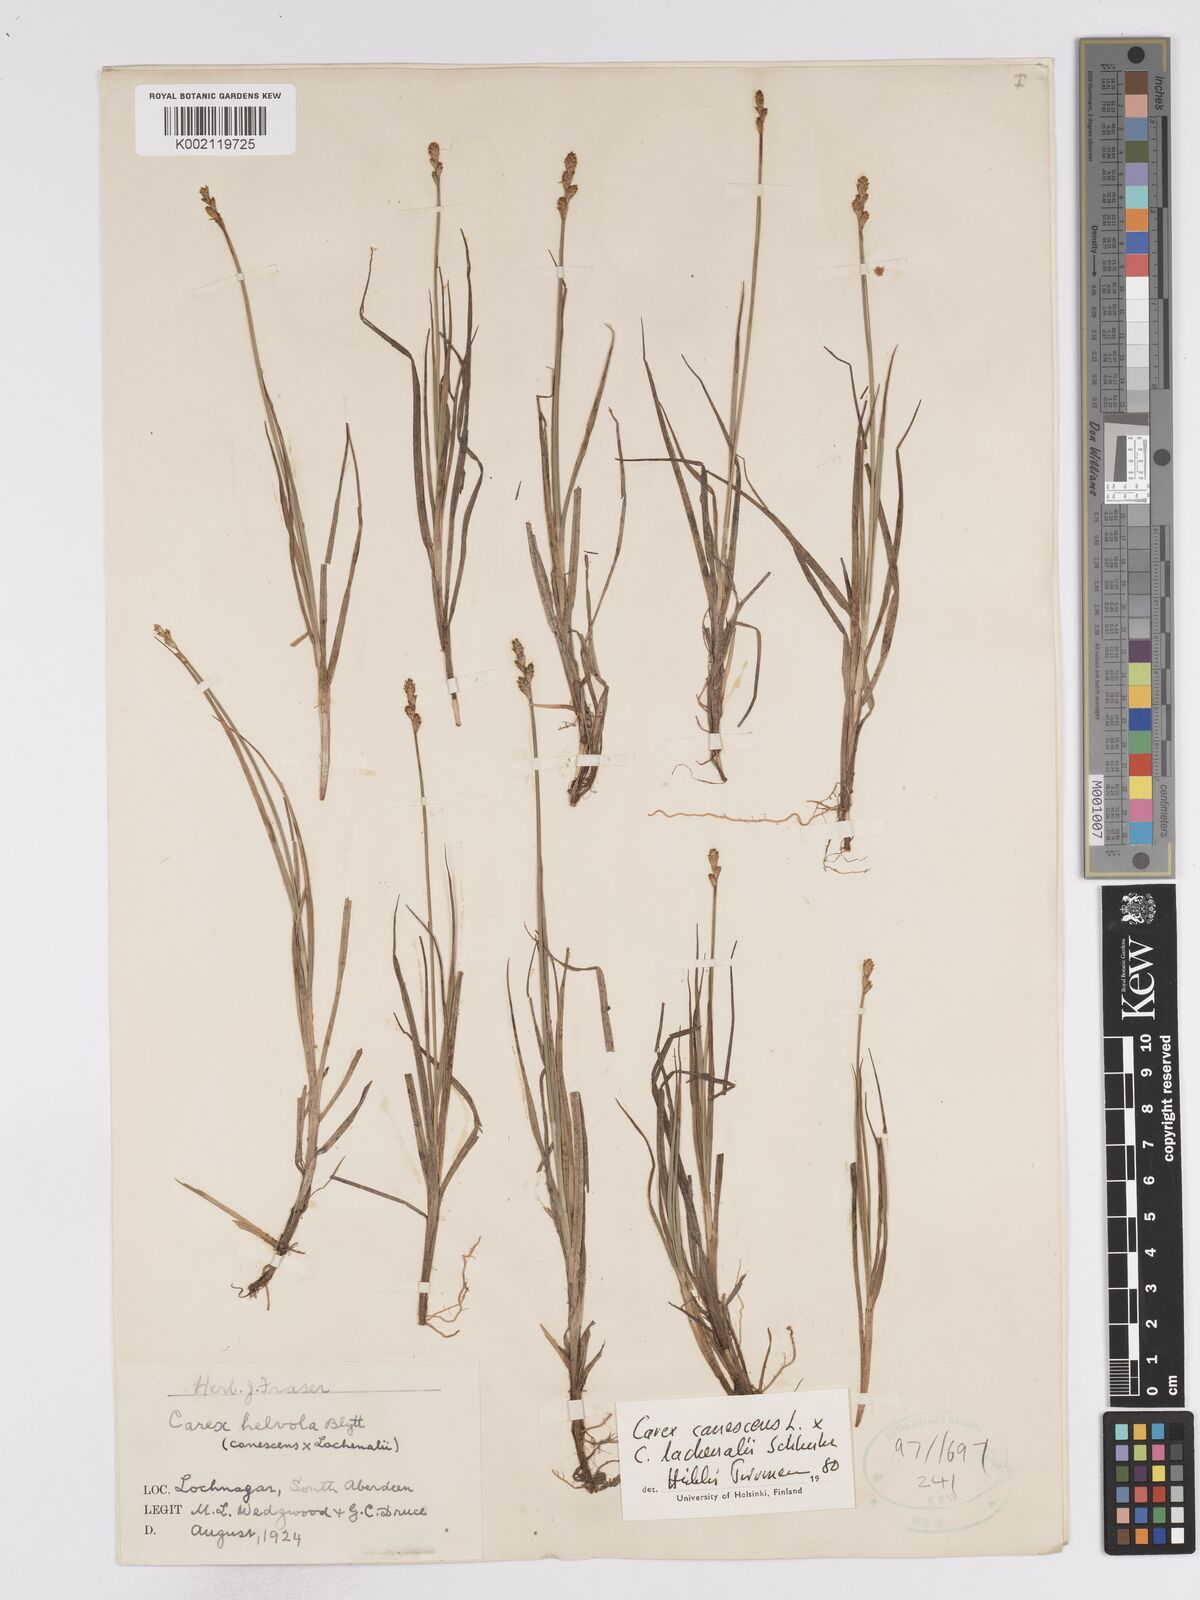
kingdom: Plantae
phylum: Tracheophyta
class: Liliopsida
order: Poales
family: Cyperaceae
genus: Carex
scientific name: Carex helvola
